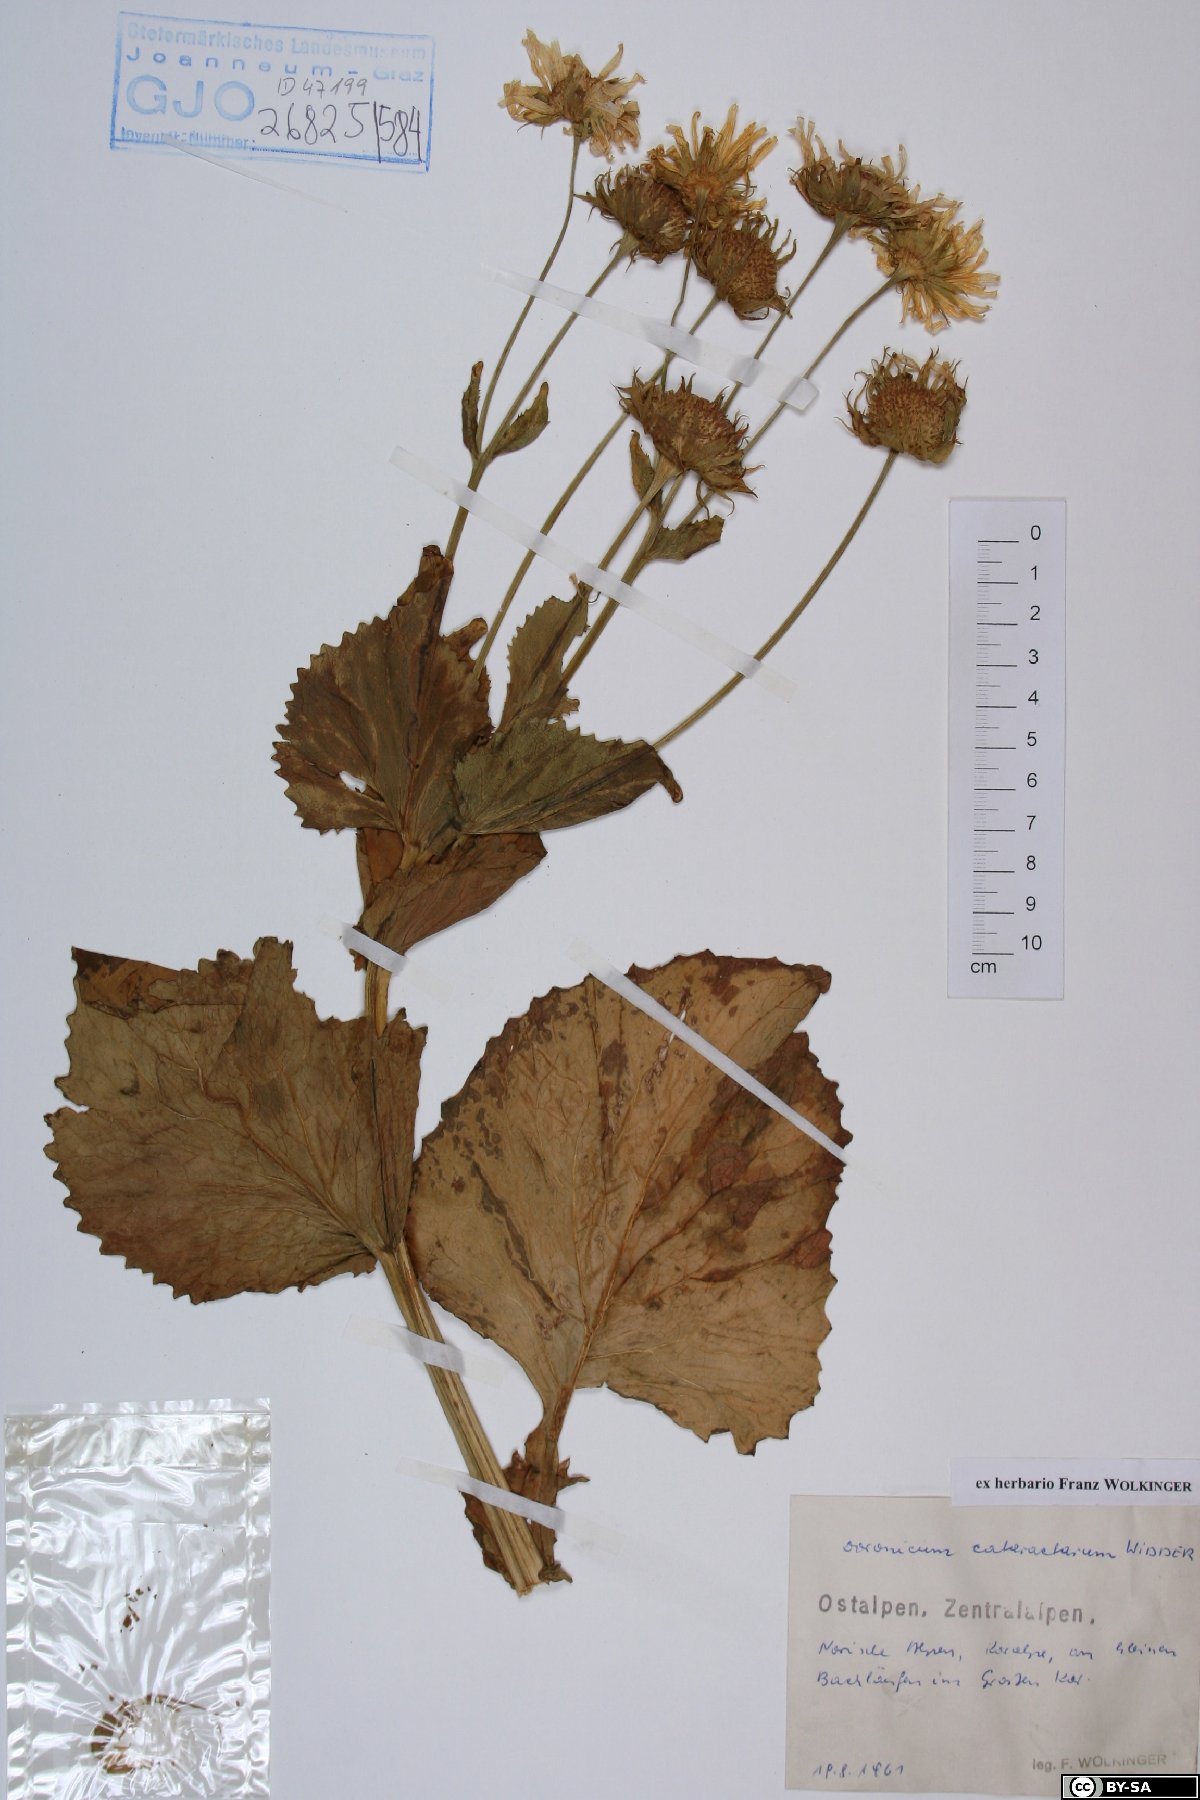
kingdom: Plantae
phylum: Tracheophyta
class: Magnoliopsida
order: Asterales
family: Asteraceae
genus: Doronicum
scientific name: Doronicum cataractarum
